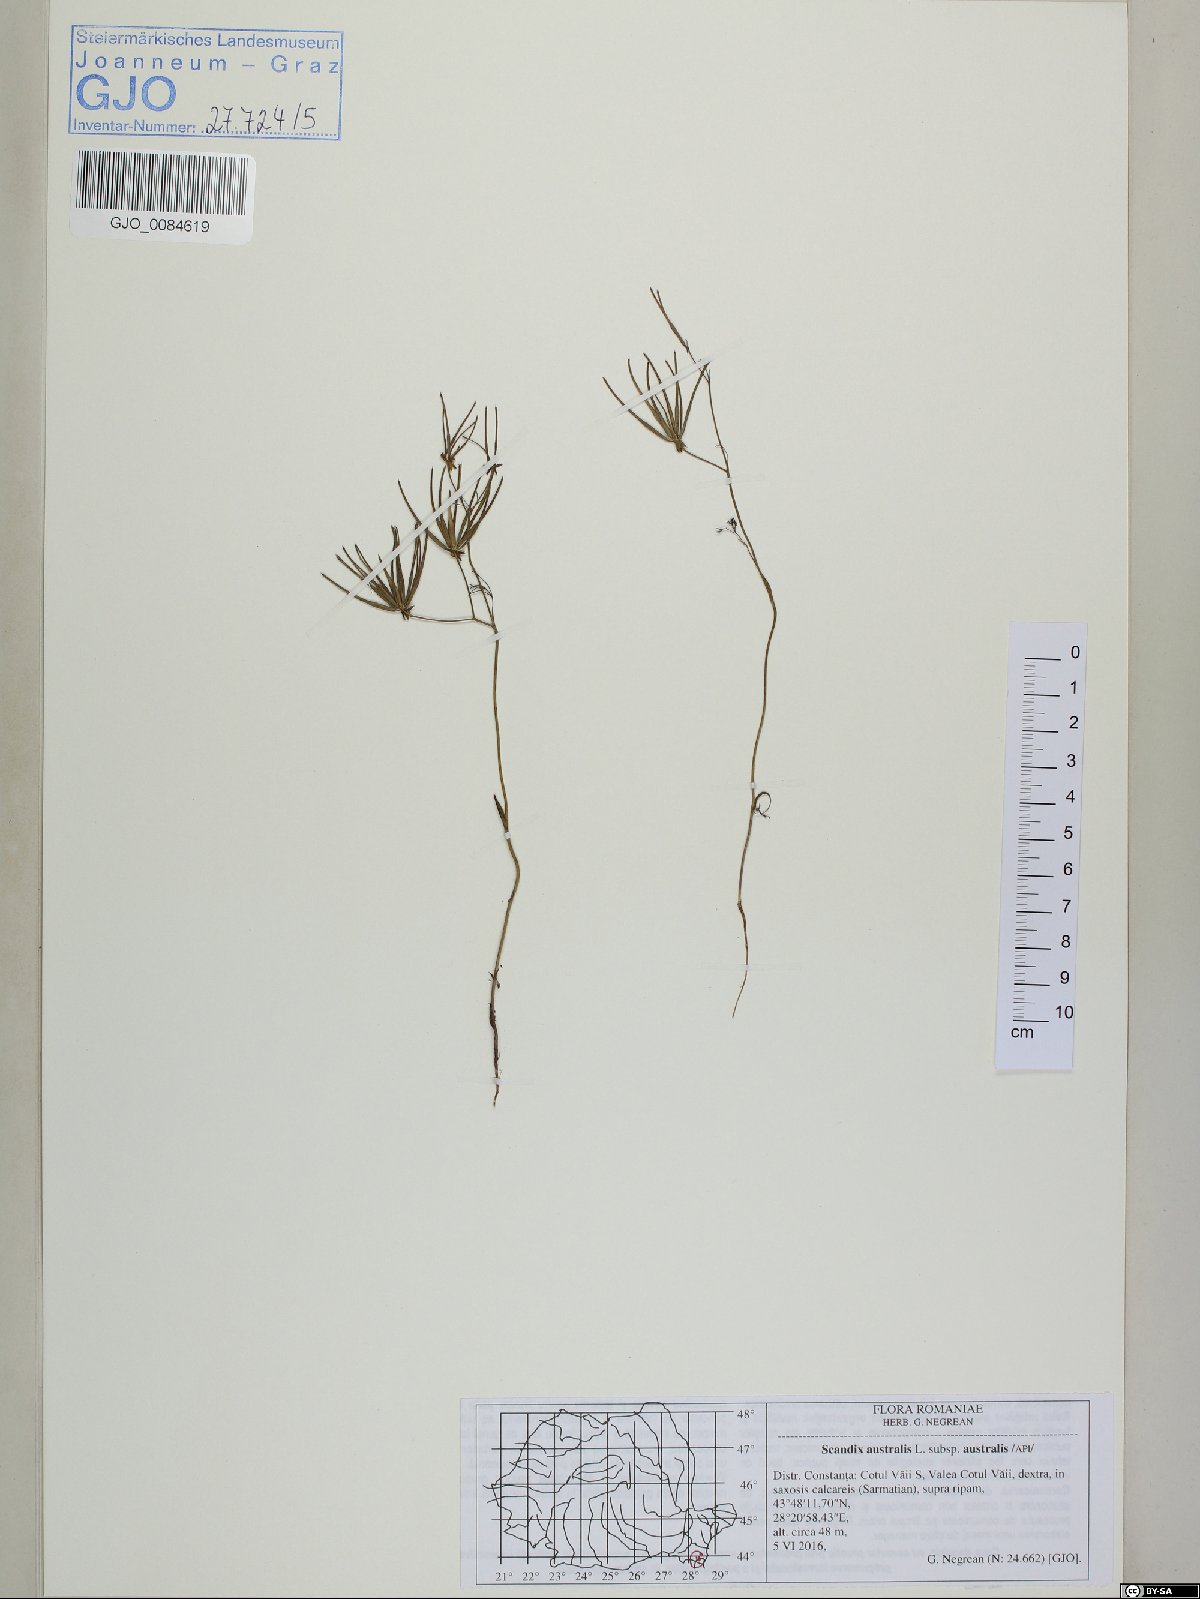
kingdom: Plantae
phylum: Tracheophyta
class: Magnoliopsida
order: Apiales
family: Apiaceae
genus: Scandix
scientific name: Scandix australis
